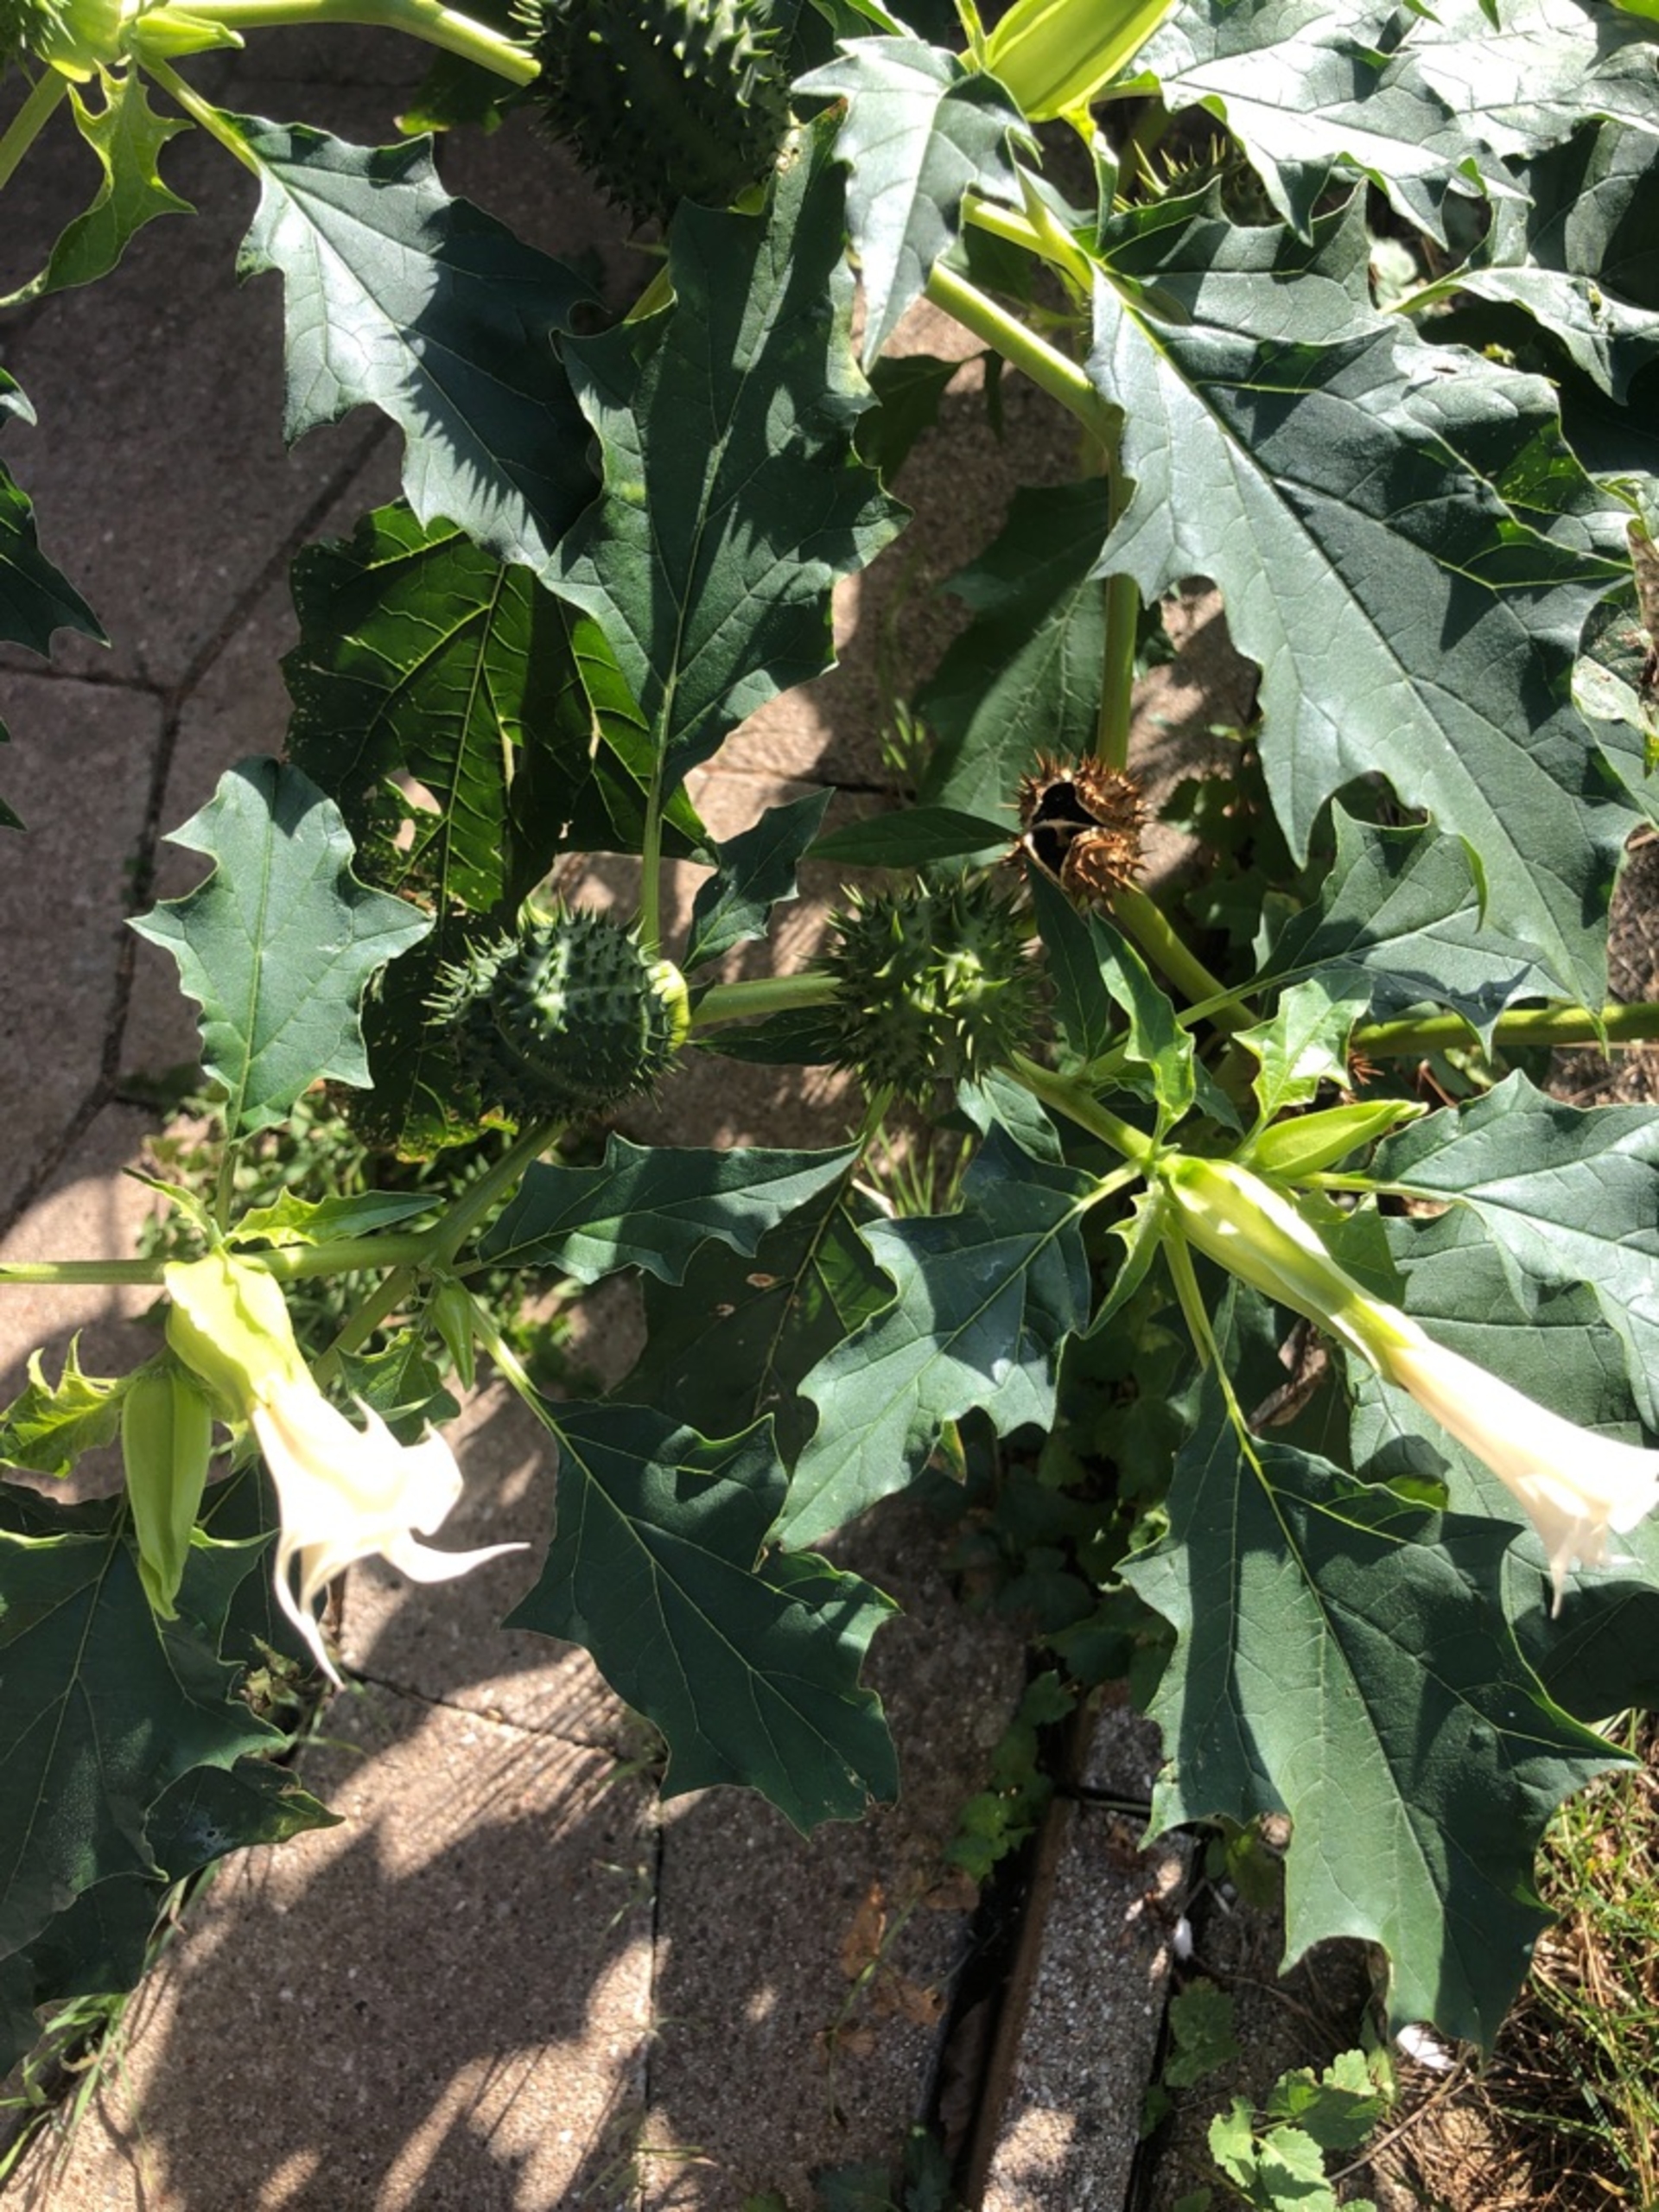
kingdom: Plantae
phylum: Tracheophyta
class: Magnoliopsida
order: Solanales
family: Solanaceae
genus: Datura
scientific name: Datura stramonium
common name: Pigæble
